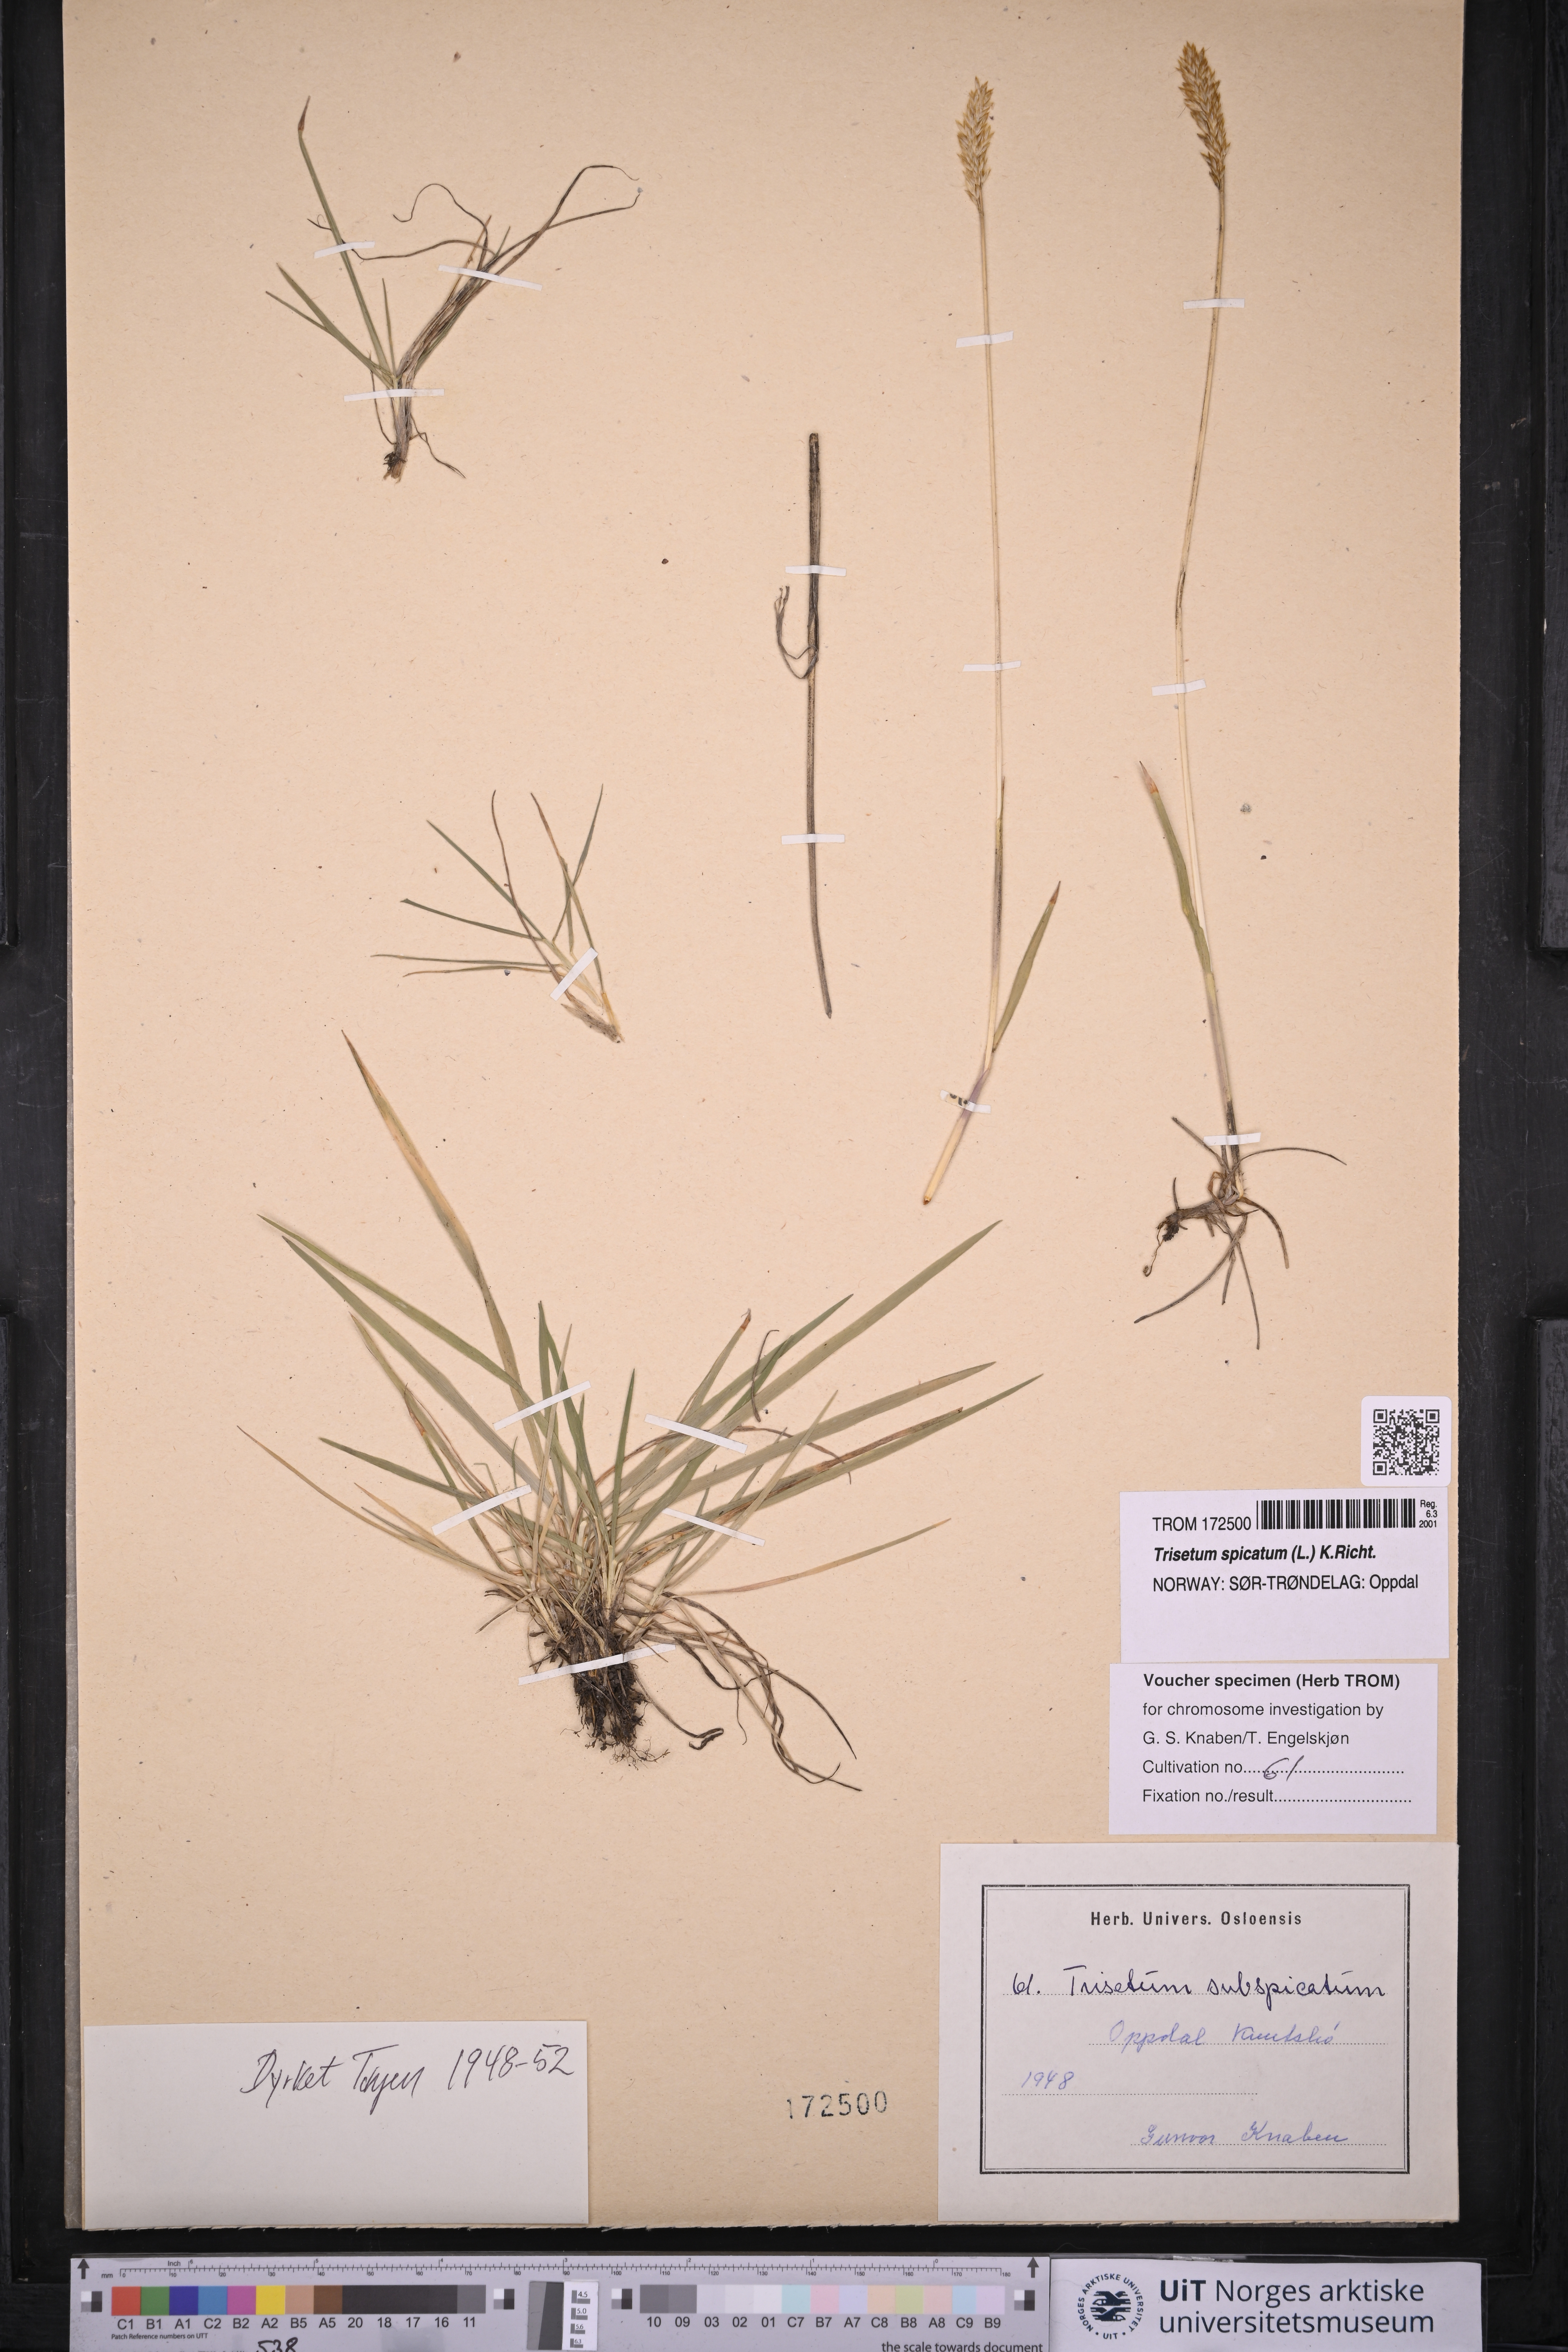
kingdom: Plantae
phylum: Tracheophyta
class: Liliopsida
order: Poales
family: Poaceae
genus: Koeleria
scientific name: Koeleria spicata
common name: Mountain trisetum
